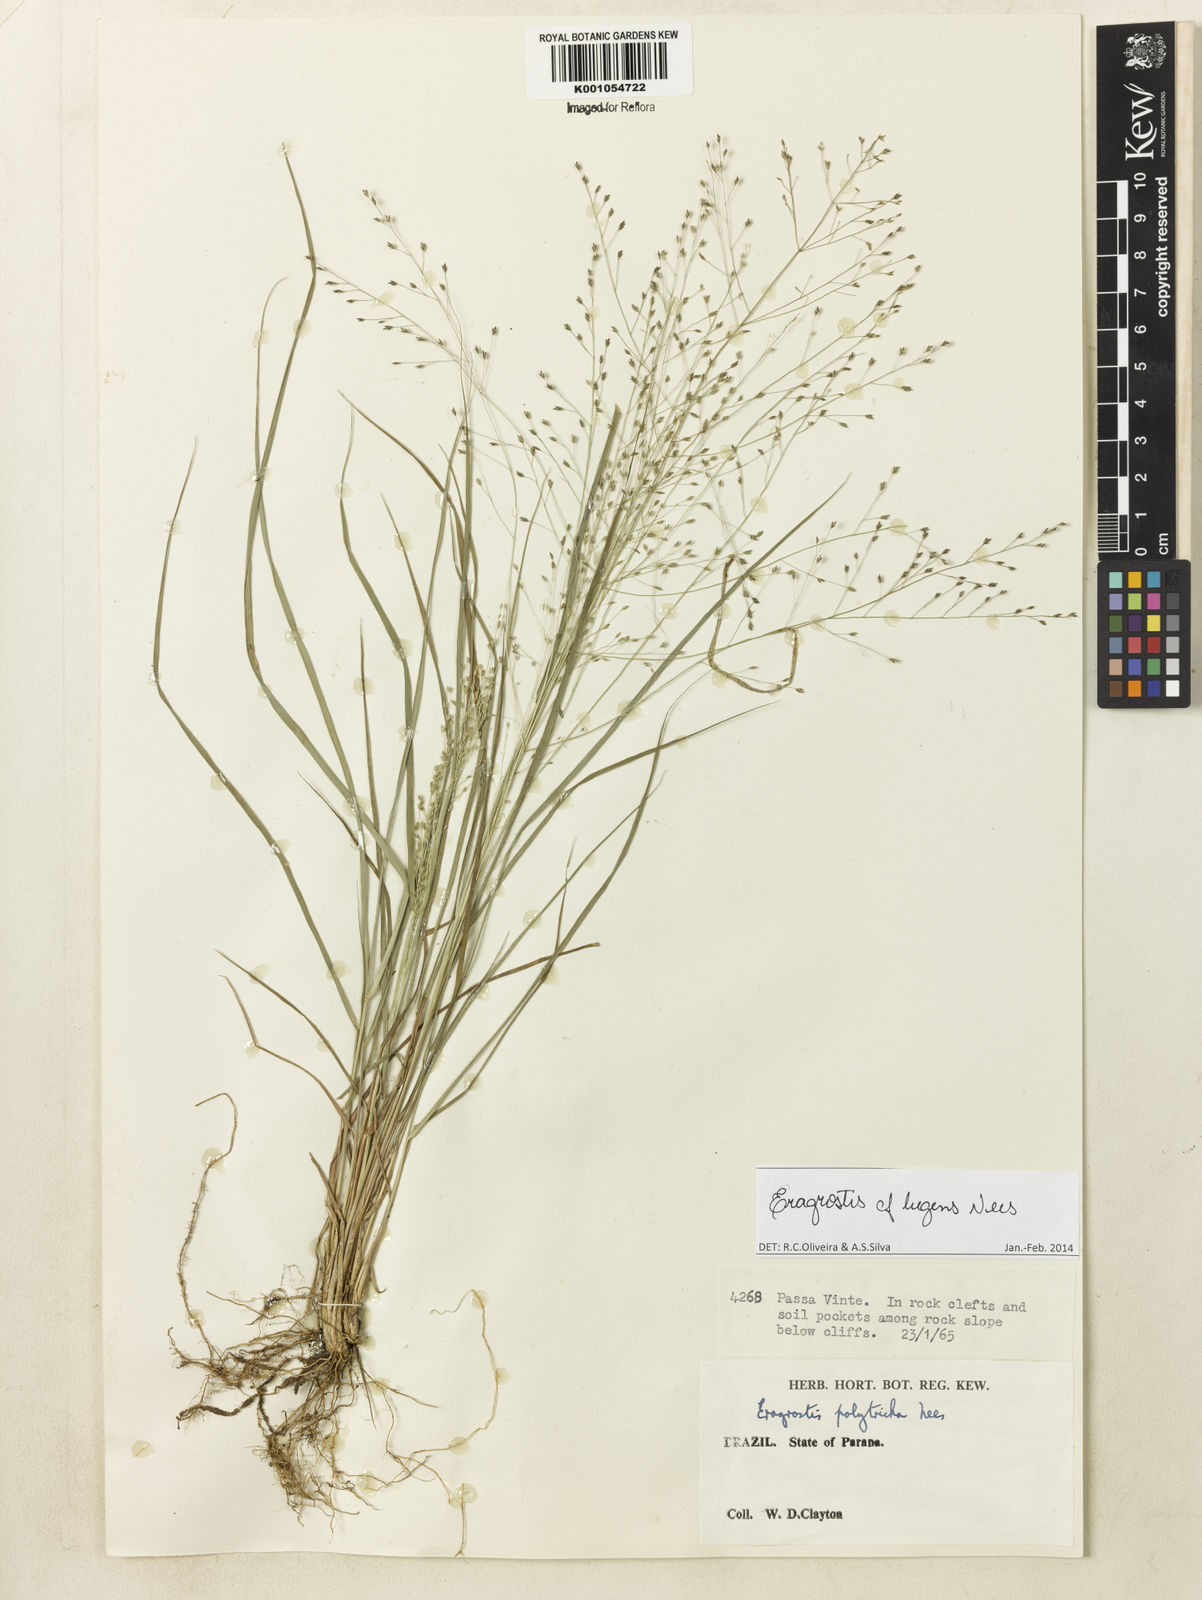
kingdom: Plantae
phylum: Tracheophyta
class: Liliopsida
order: Poales
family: Poaceae
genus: Eragrostis
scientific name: Eragrostis lugens
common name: Mourning love grass
